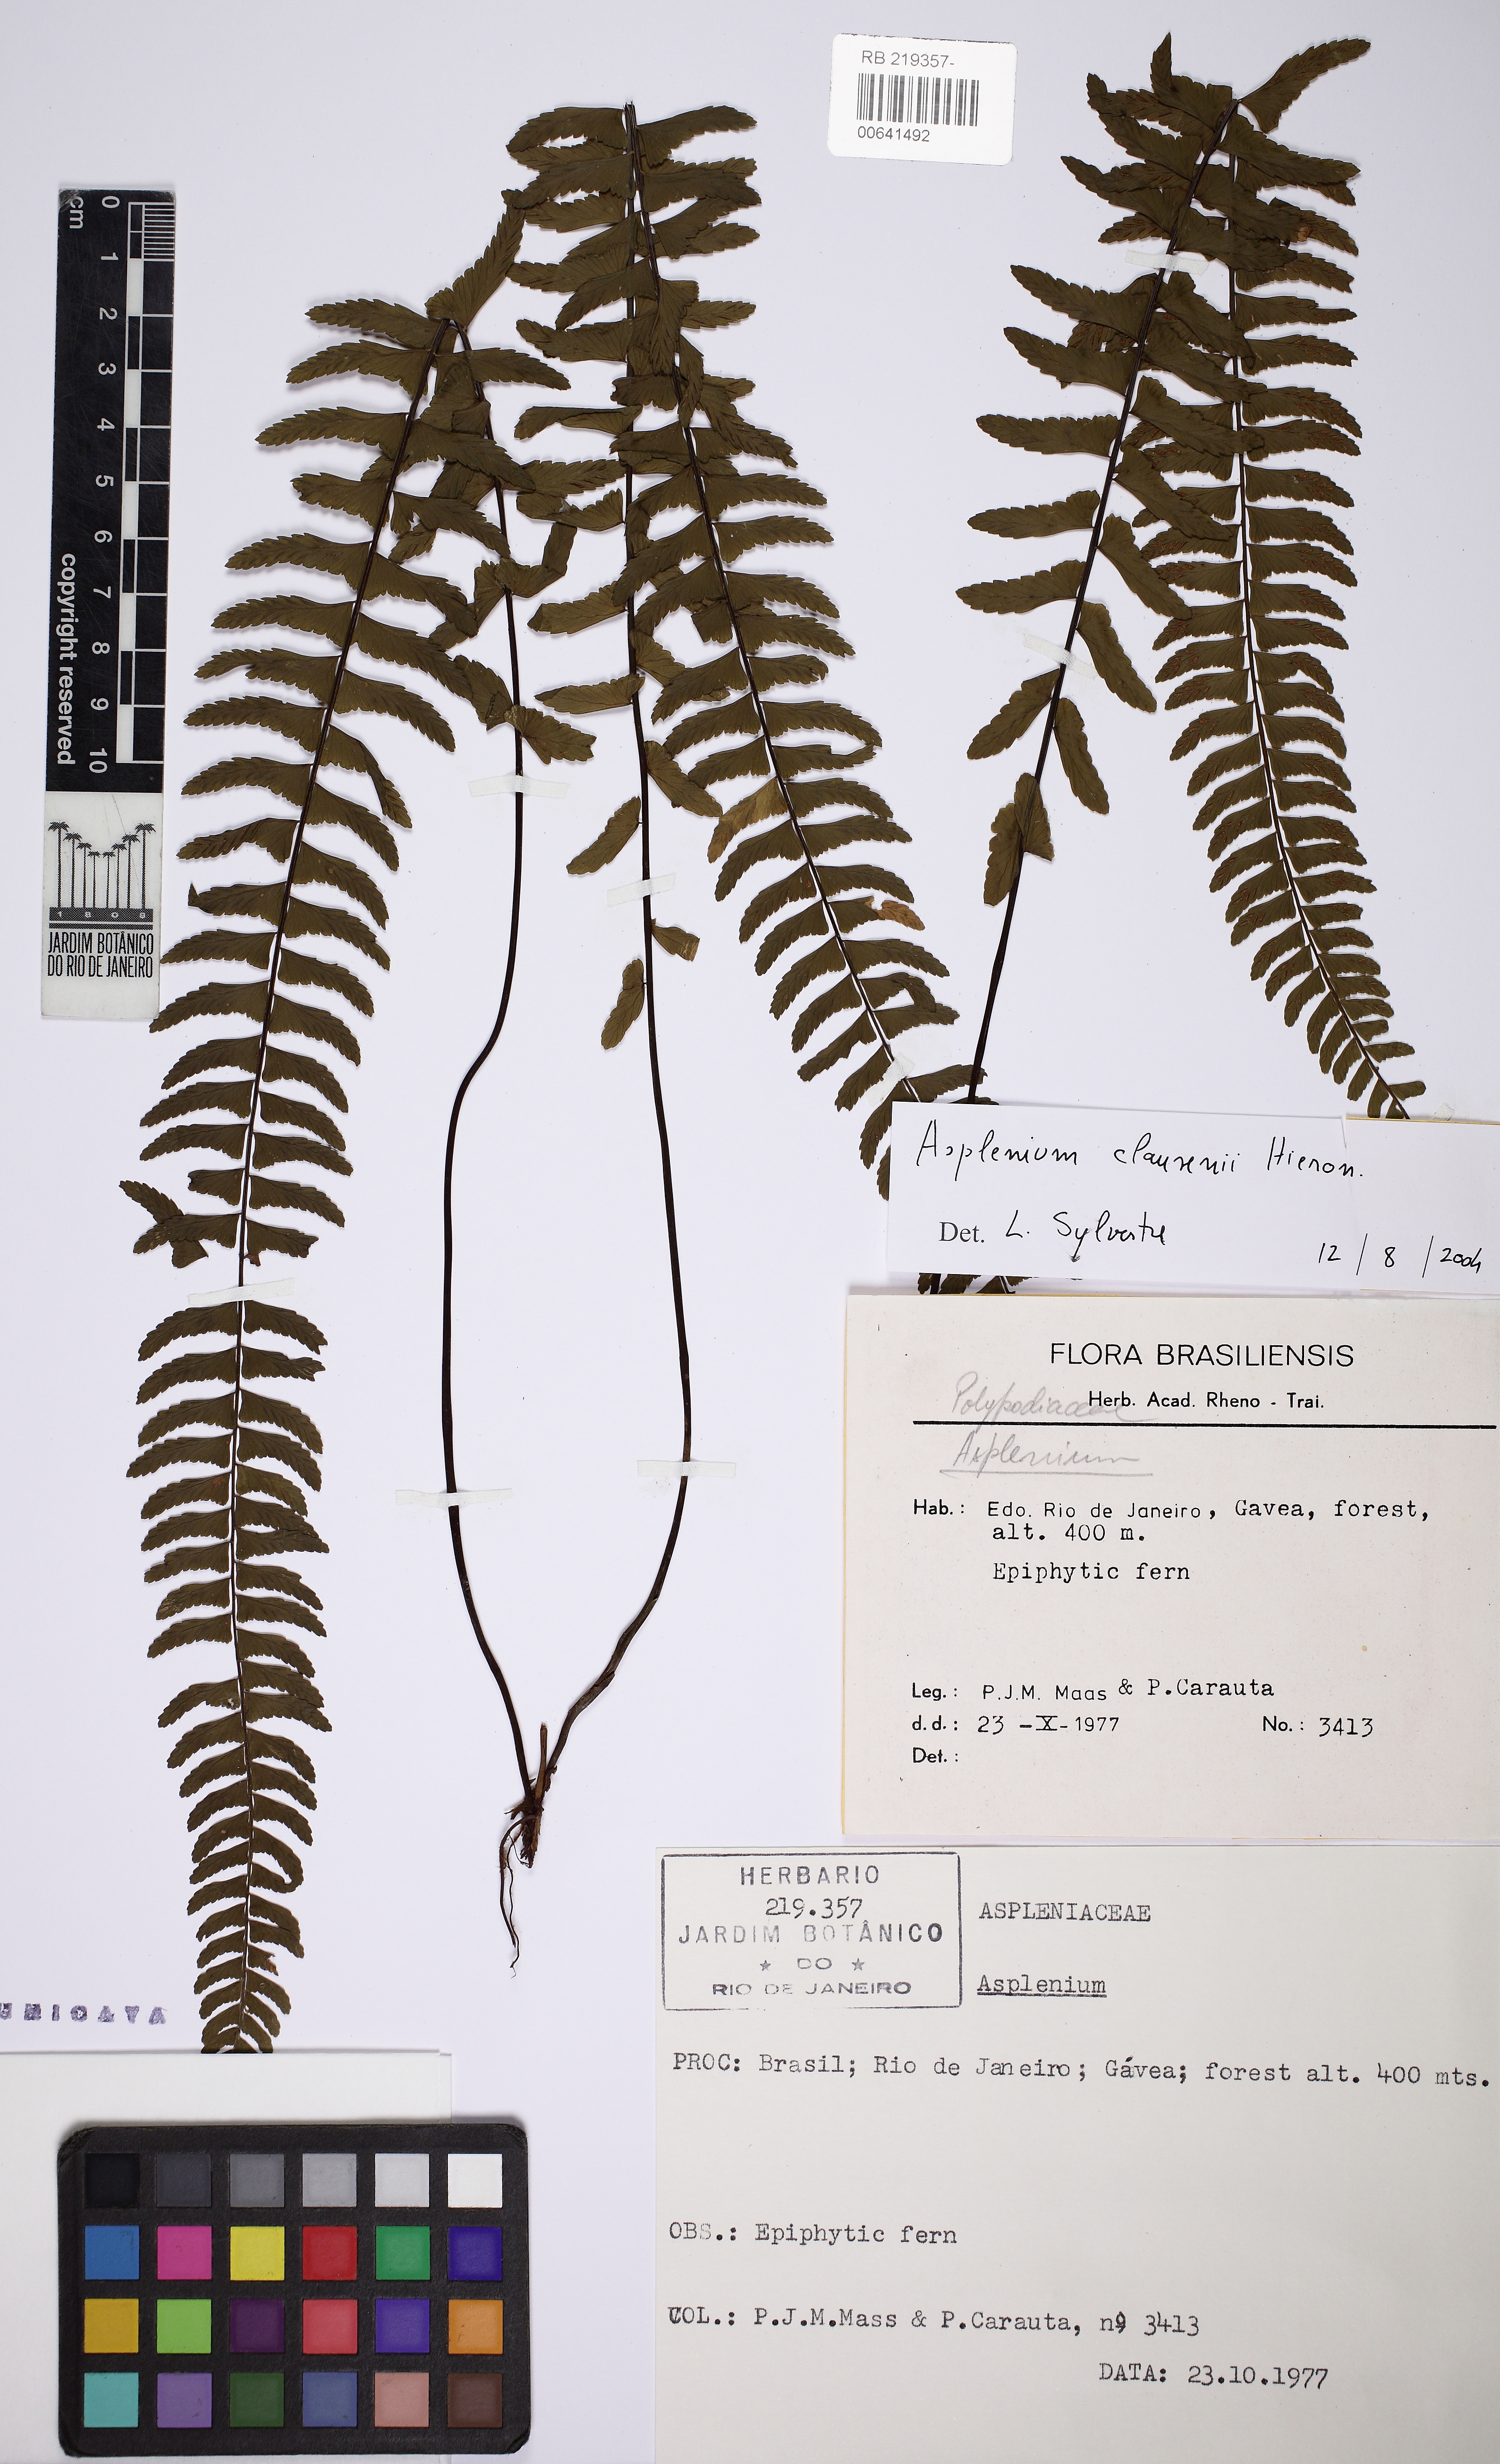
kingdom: Plantae
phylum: Tracheophyta
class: Polypodiopsida
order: Polypodiales
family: Aspleniaceae
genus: Asplenium
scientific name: Asplenium claussenii
